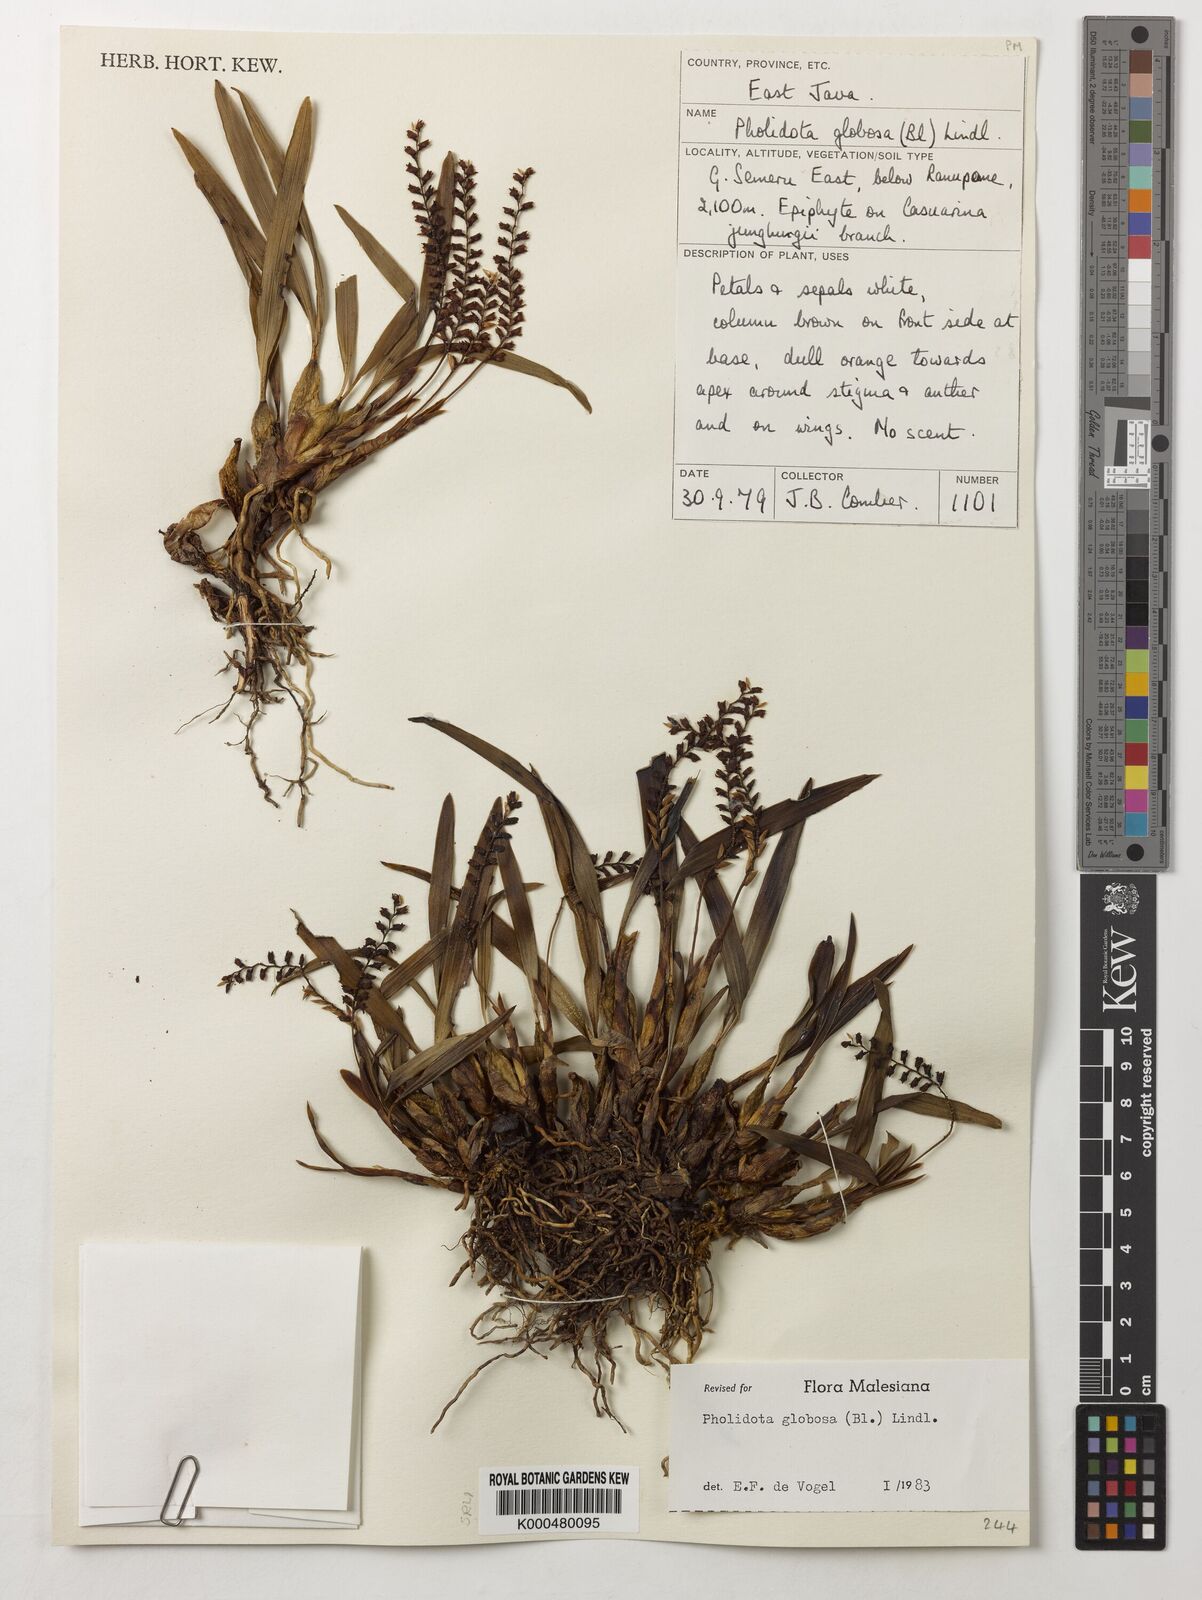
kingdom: Plantae
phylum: Tracheophyta
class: Liliopsida
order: Asparagales
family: Orchidaceae
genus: Coelogyne
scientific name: Coelogyne globosa
